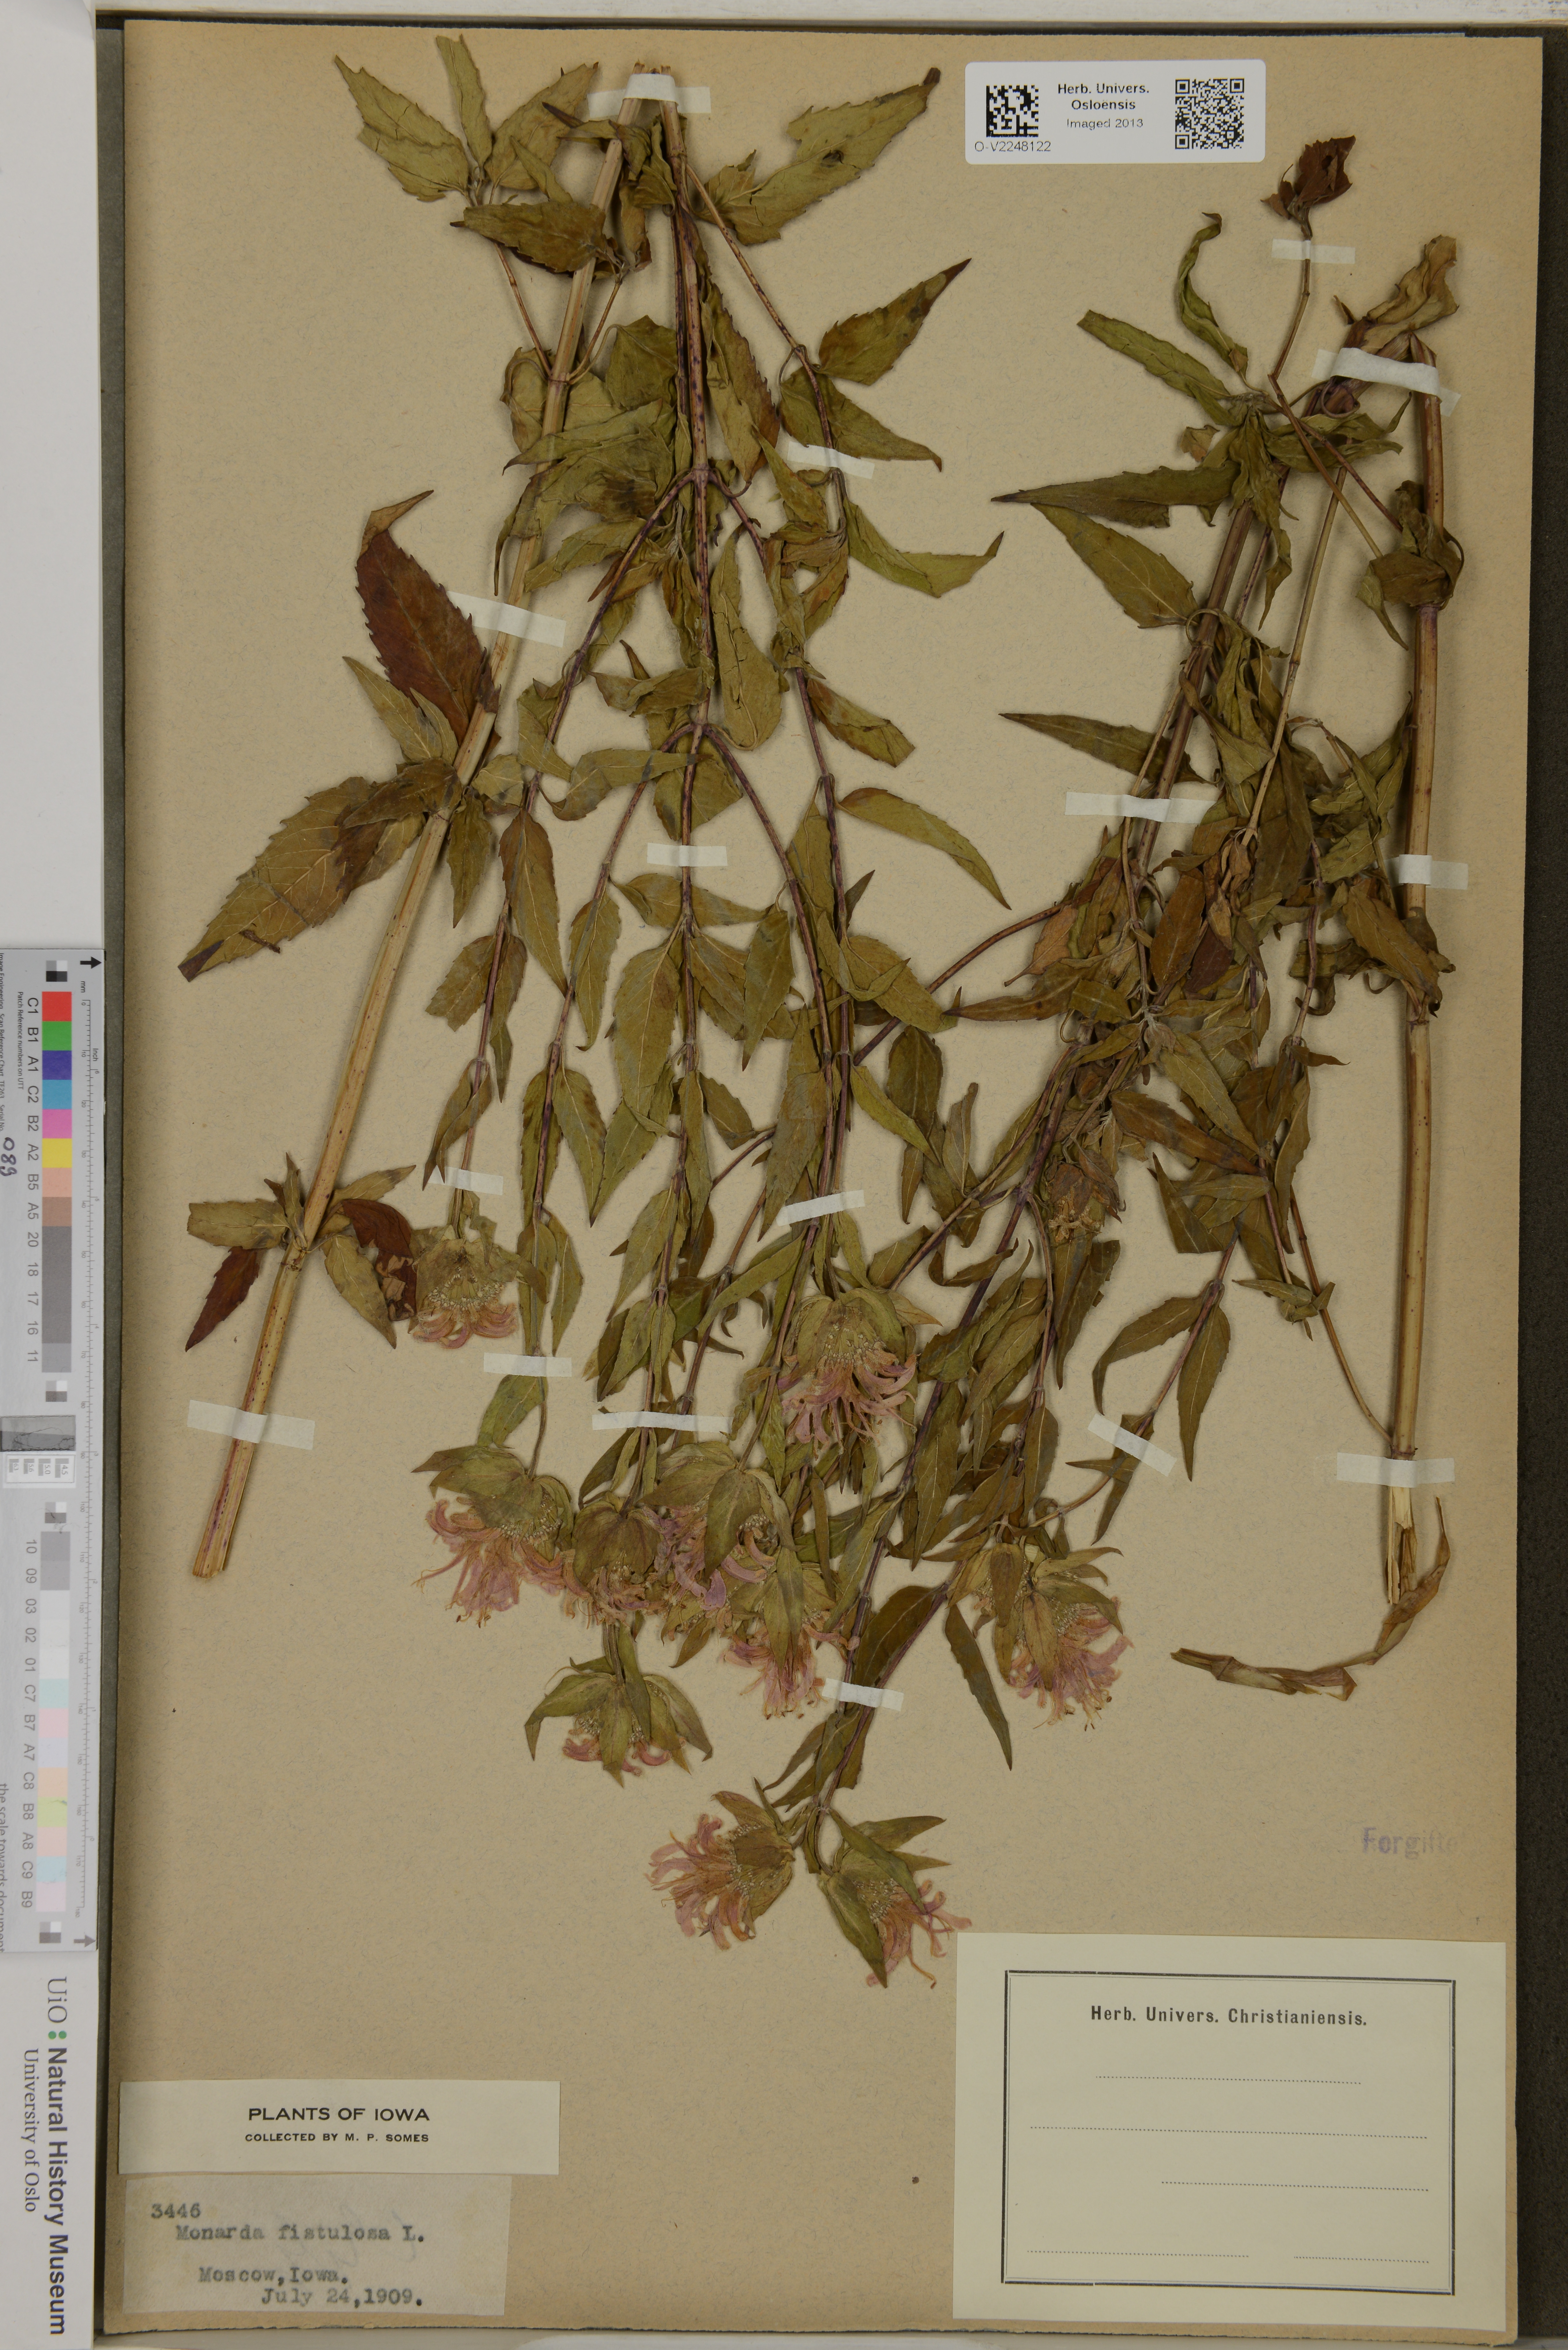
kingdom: Plantae
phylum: Tracheophyta
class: Magnoliopsida
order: Lamiales
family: Lamiaceae
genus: Monarda
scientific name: Monarda fistulosa
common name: Purple beebalm
